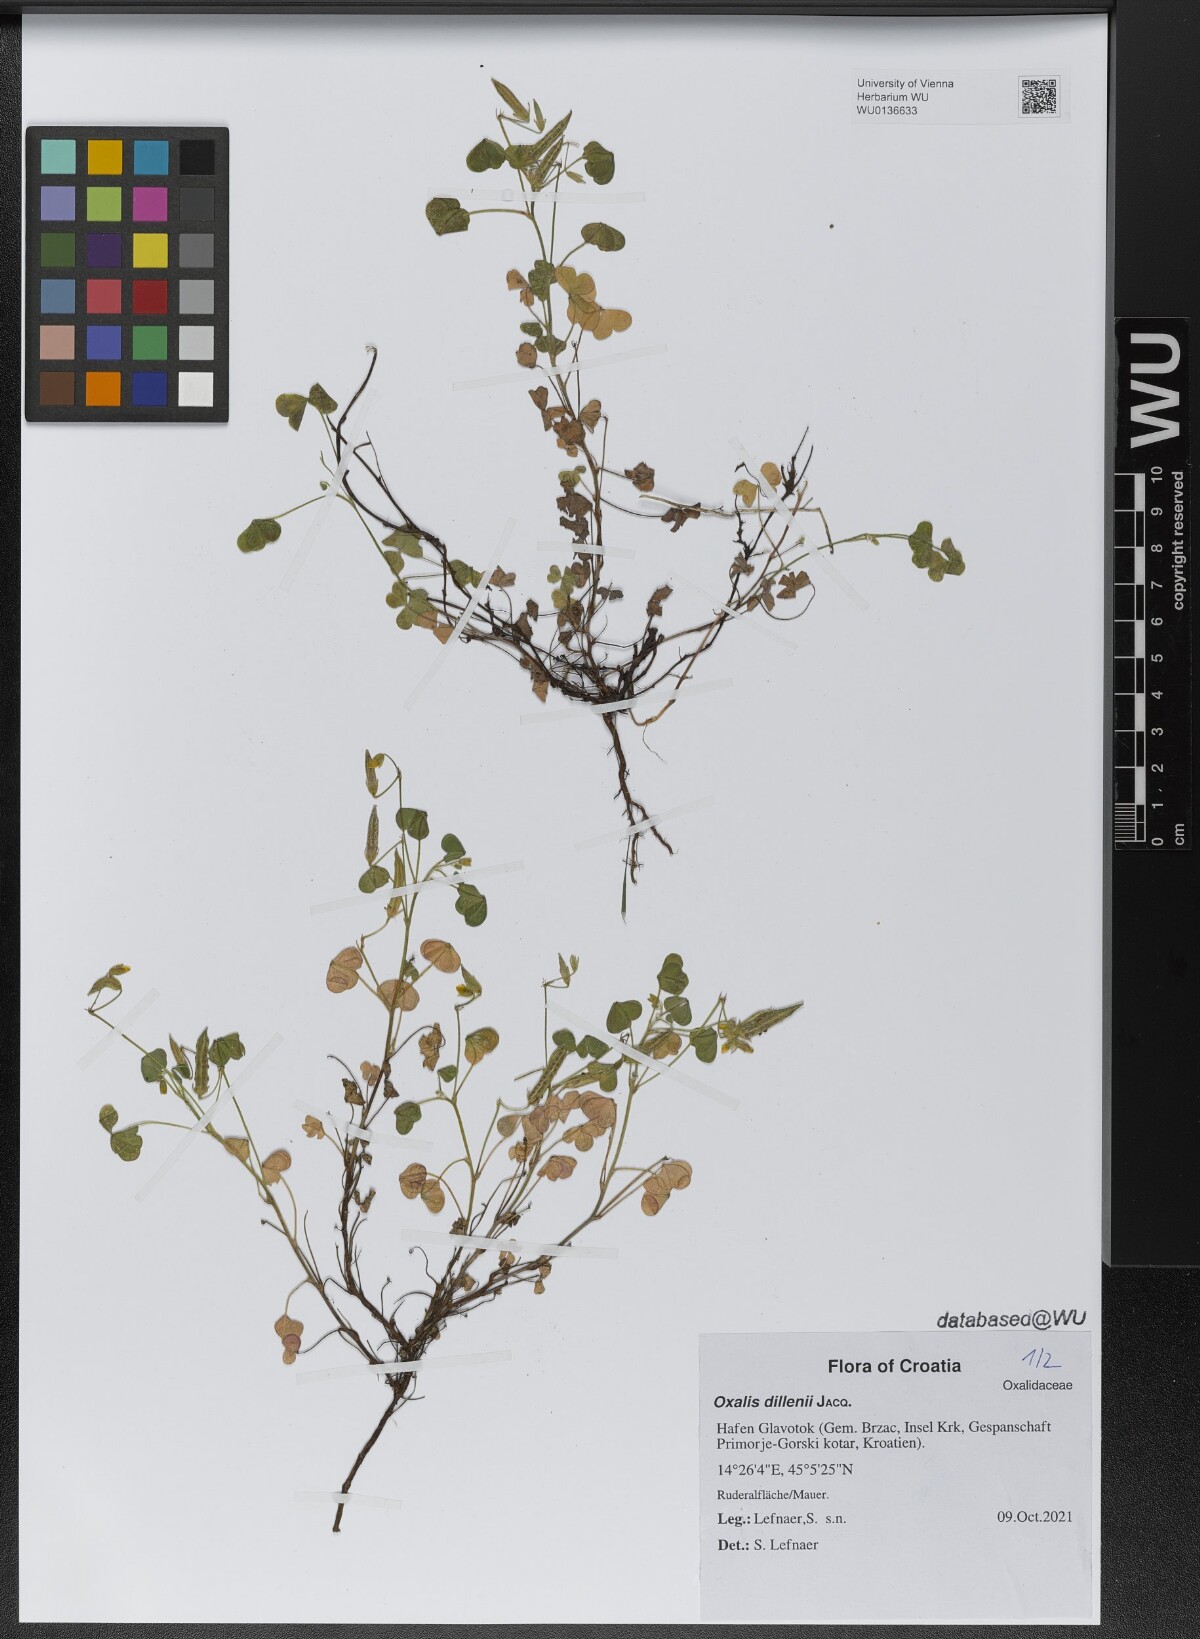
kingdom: Plantae
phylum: Tracheophyta
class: Magnoliopsida
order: Oxalidales
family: Oxalidaceae
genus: Oxalis
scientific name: Oxalis dillenii
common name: Sussex yellow-sorrel
